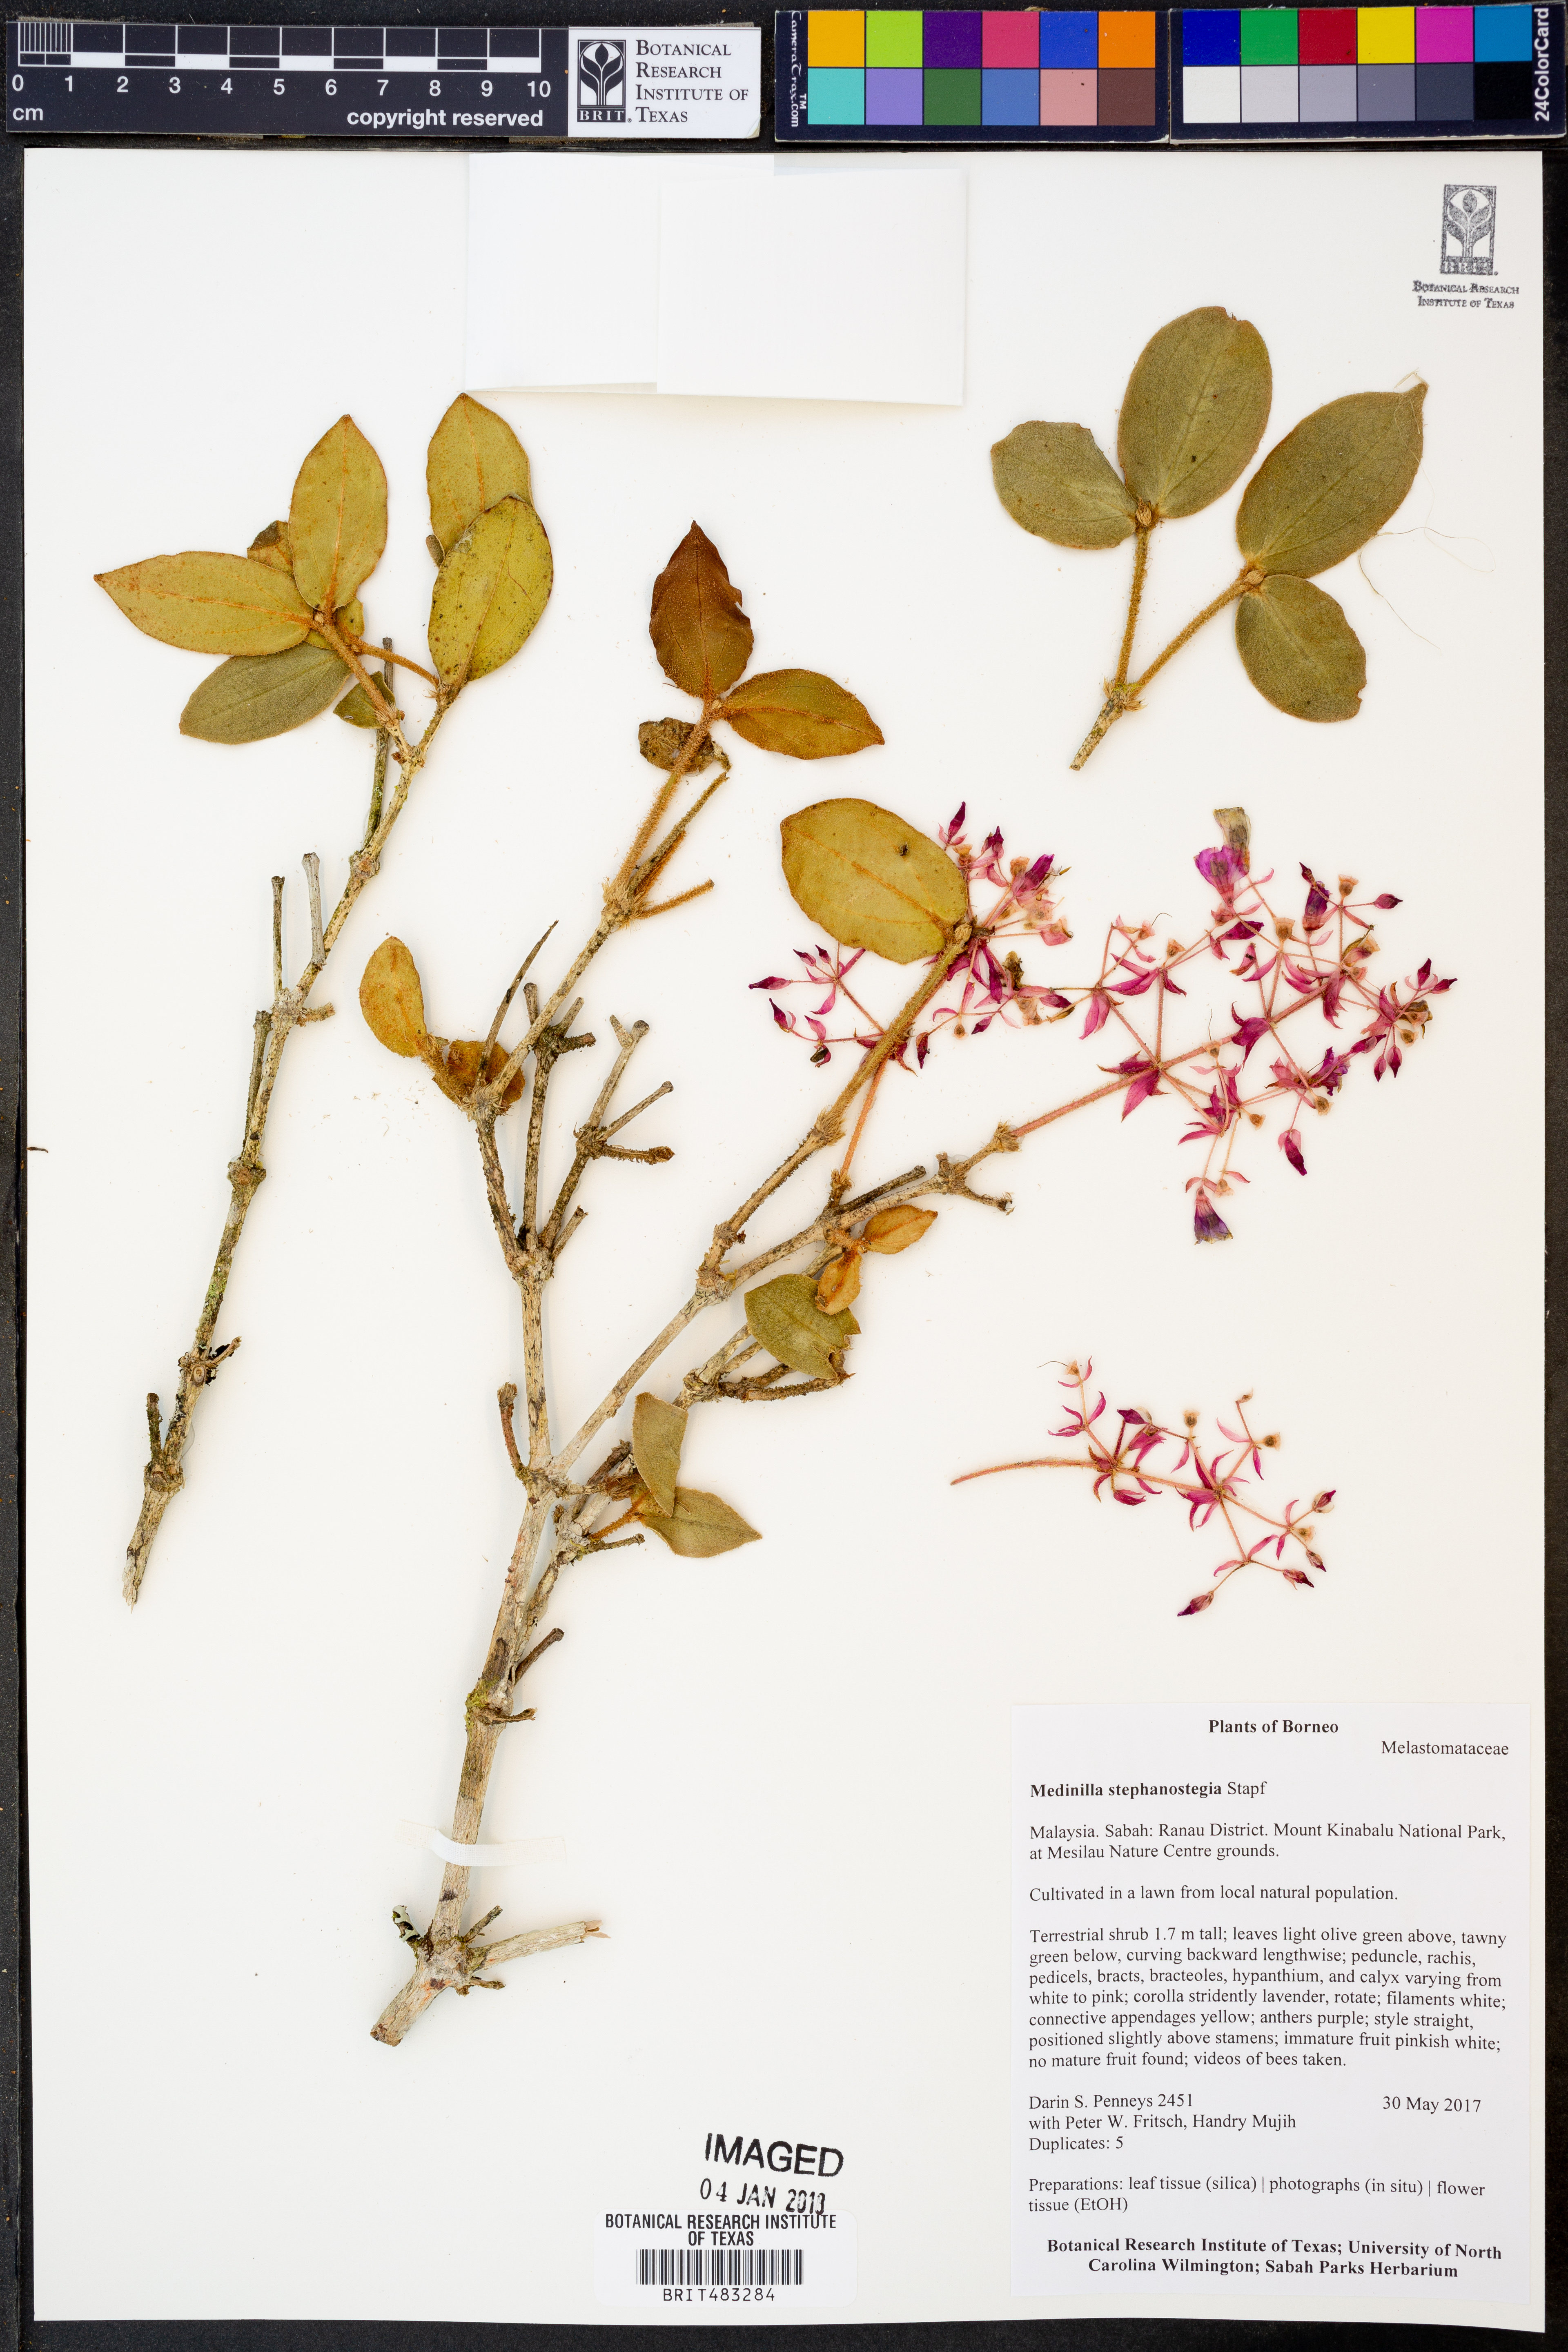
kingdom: Plantae
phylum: Tracheophyta
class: Magnoliopsida
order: Myrtales
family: Melastomataceae
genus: Medinilla
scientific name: Medinilla stephanostegia
